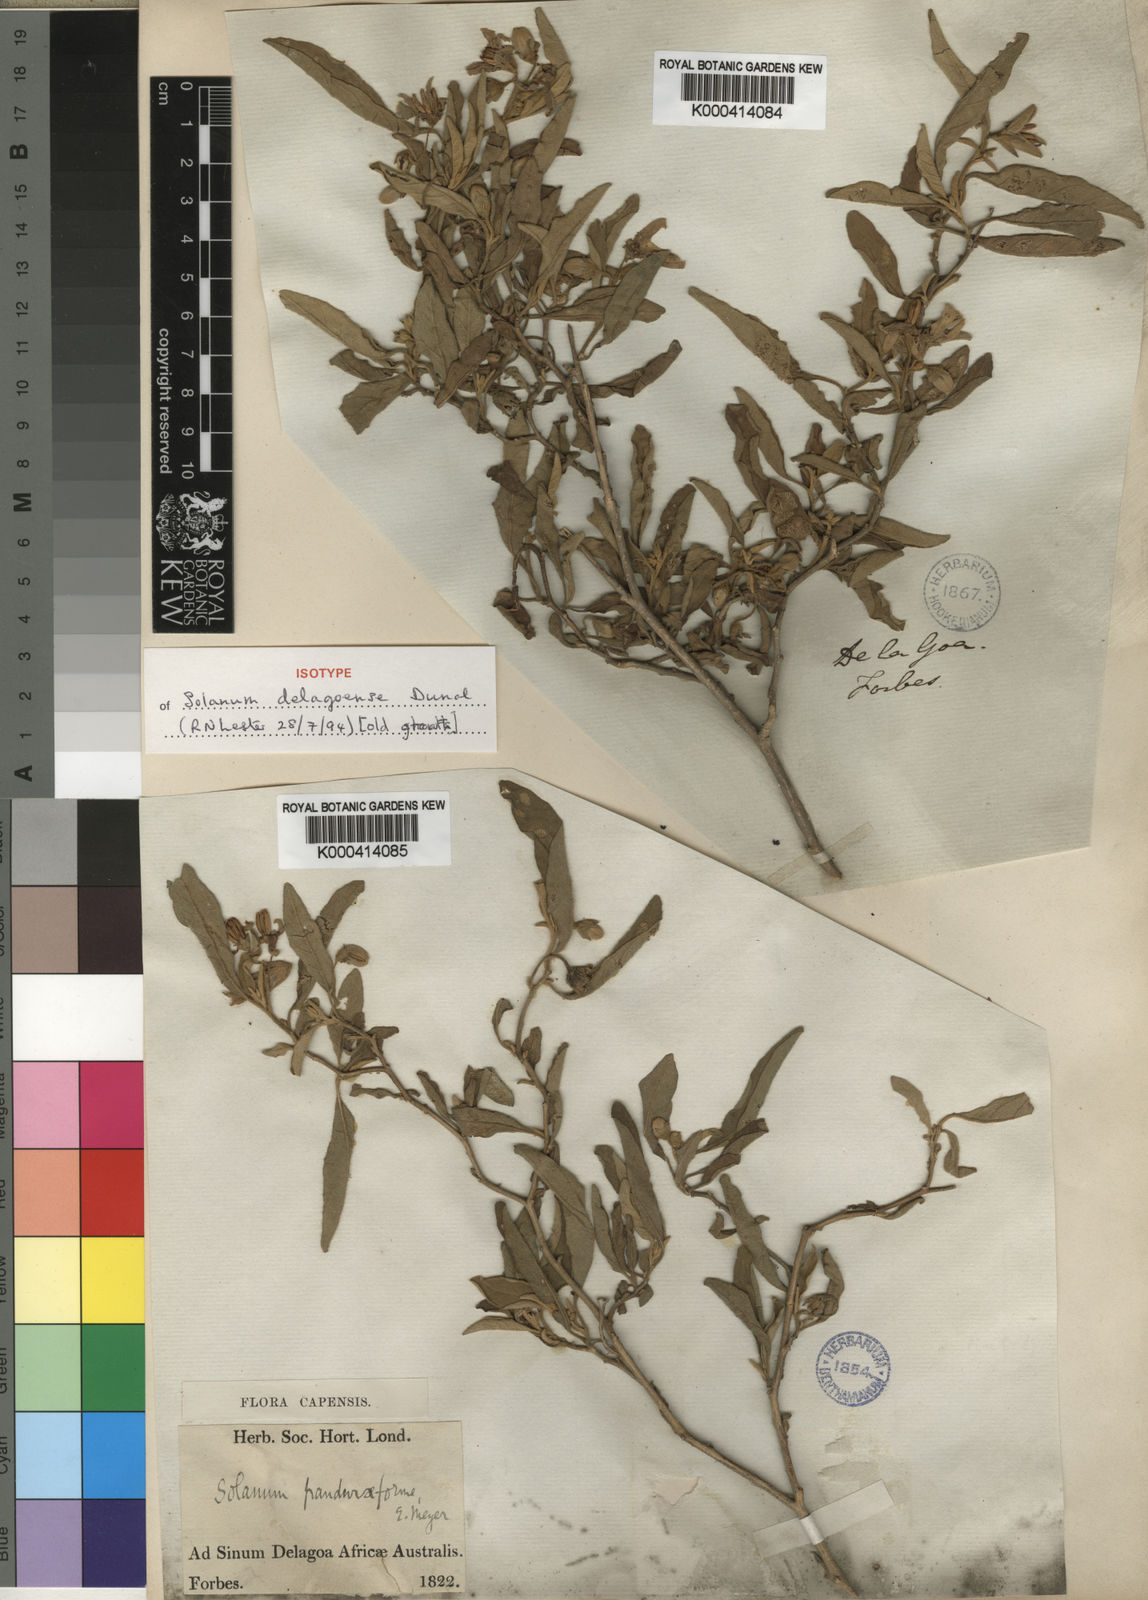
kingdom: Plantae
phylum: Tracheophyta
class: Magnoliopsida
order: Solanales
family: Solanaceae
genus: Solanum
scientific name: Solanum incanum
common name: Bitter apple
